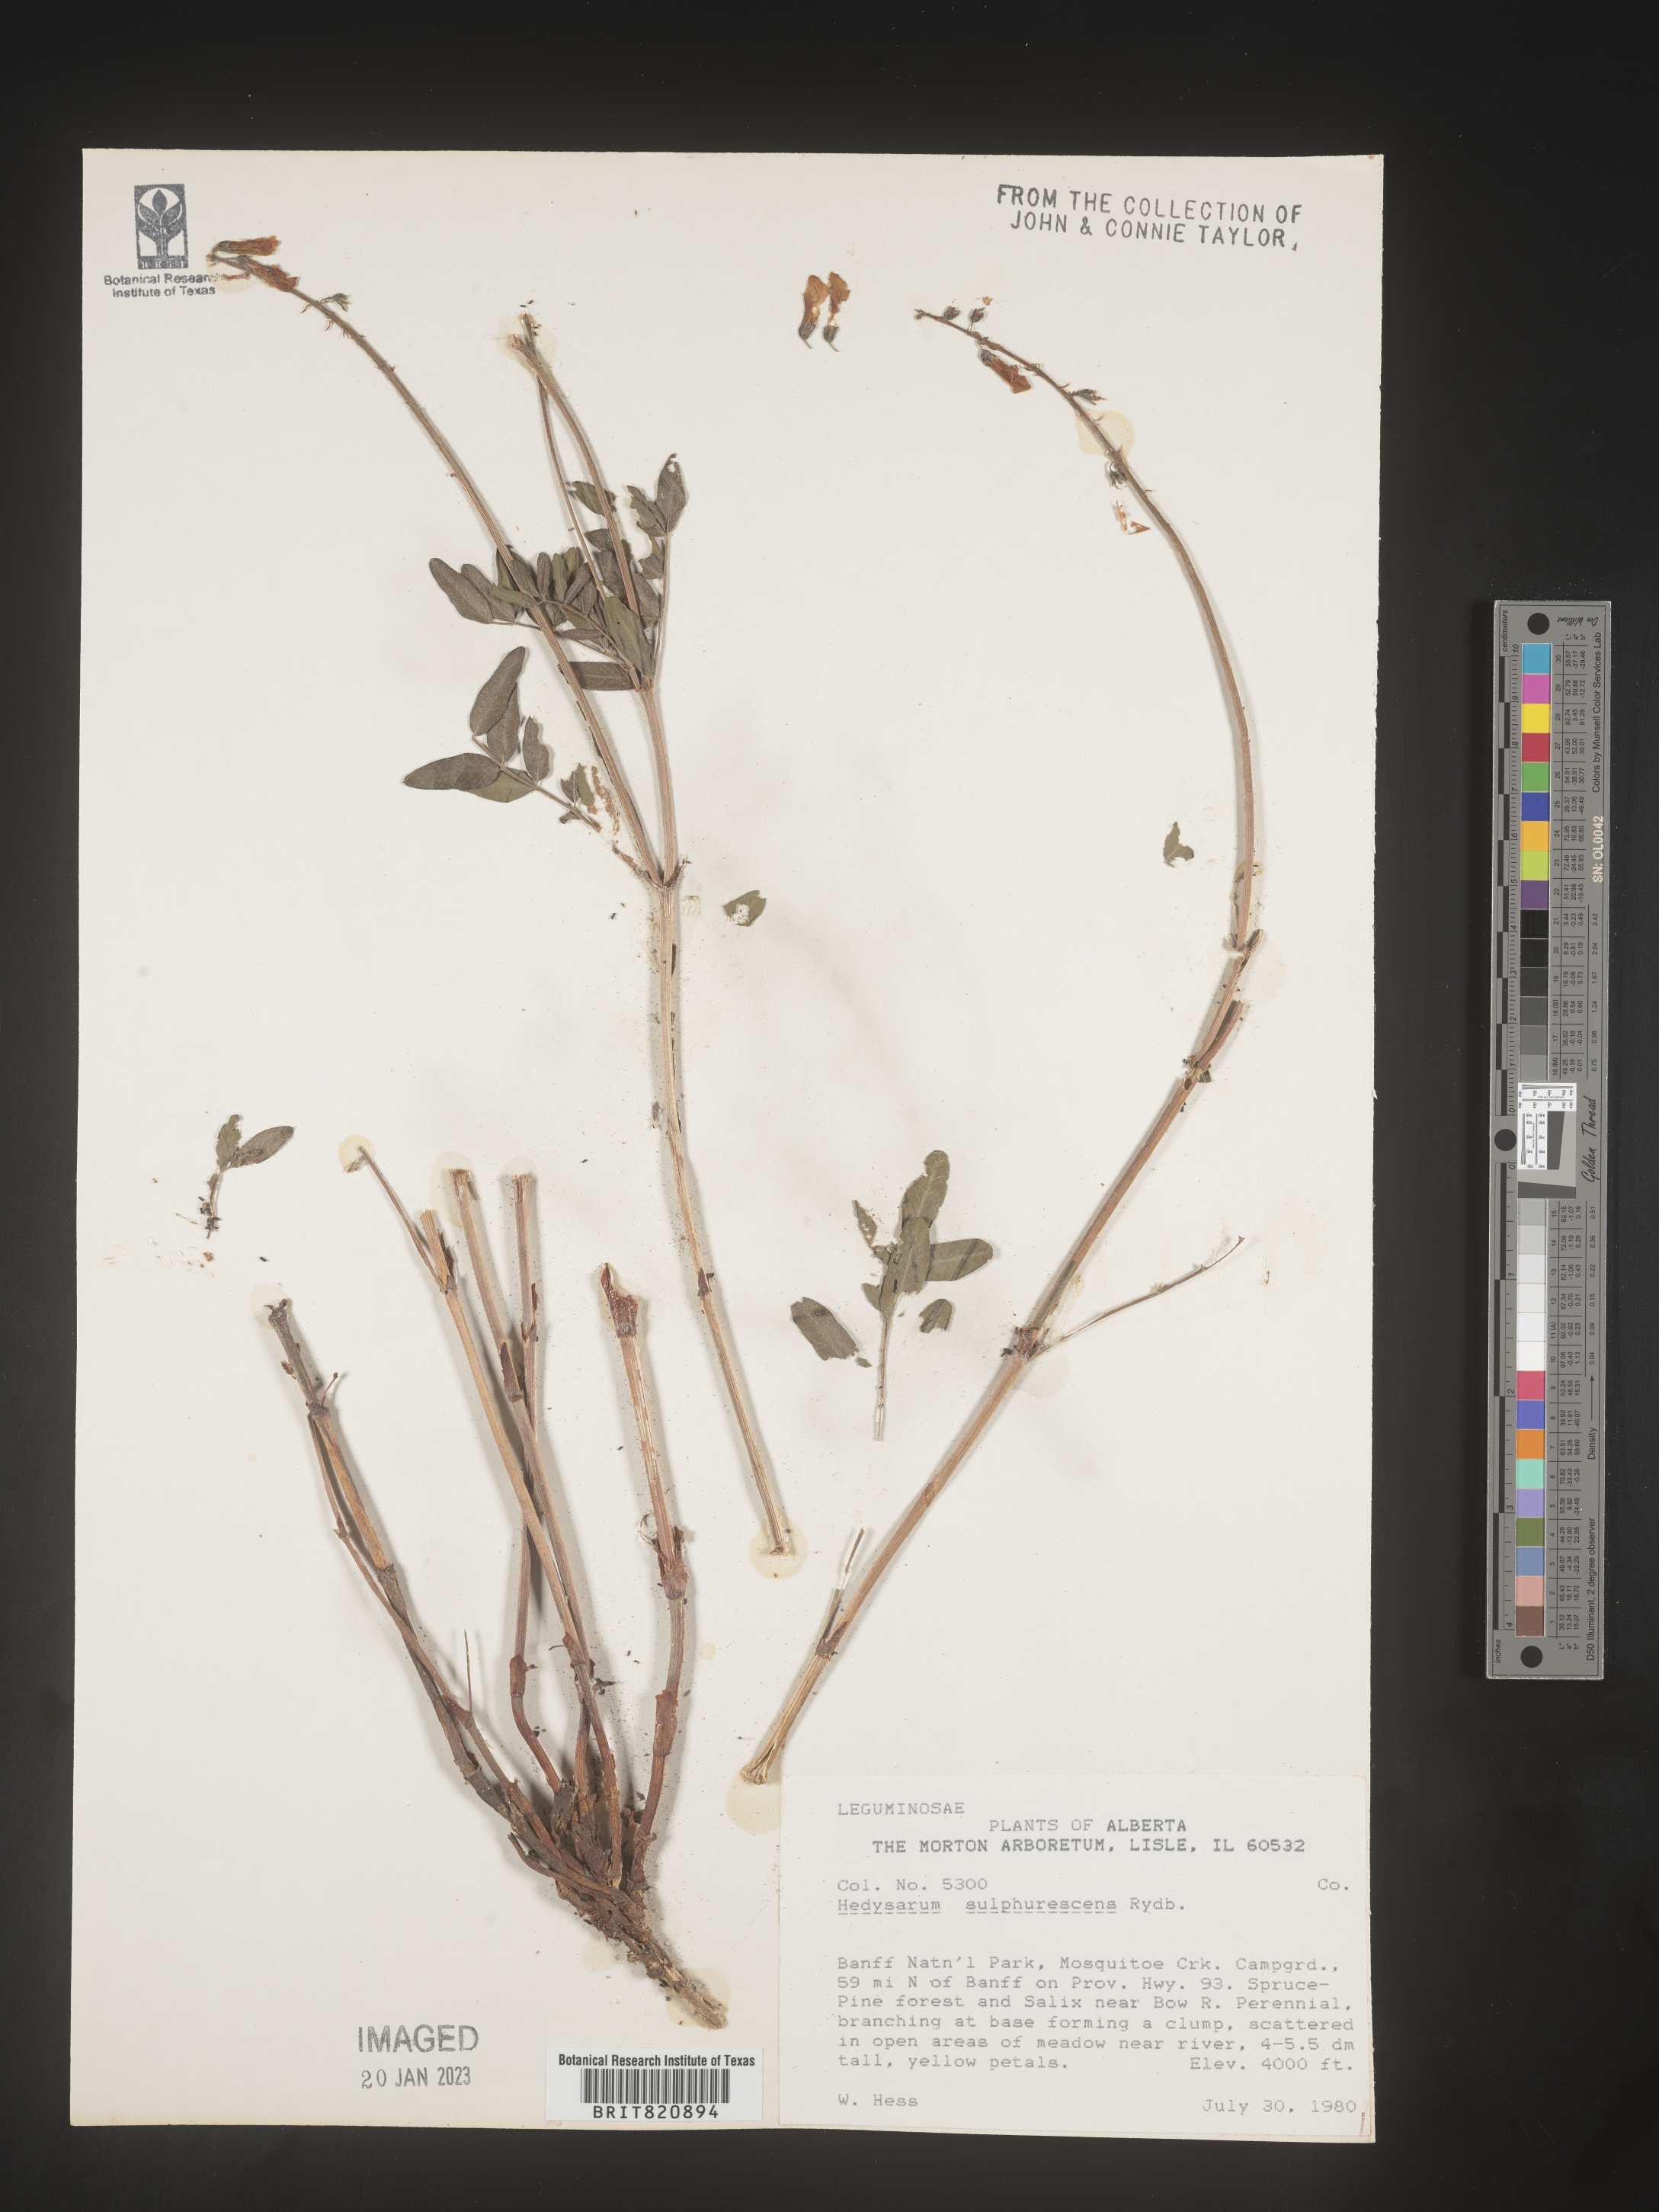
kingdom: Plantae
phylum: Tracheophyta
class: Magnoliopsida
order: Fabales
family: Fabaceae
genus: Hedysarum
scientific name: Hedysarum sulphurescens
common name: Sulphur hedysarum
